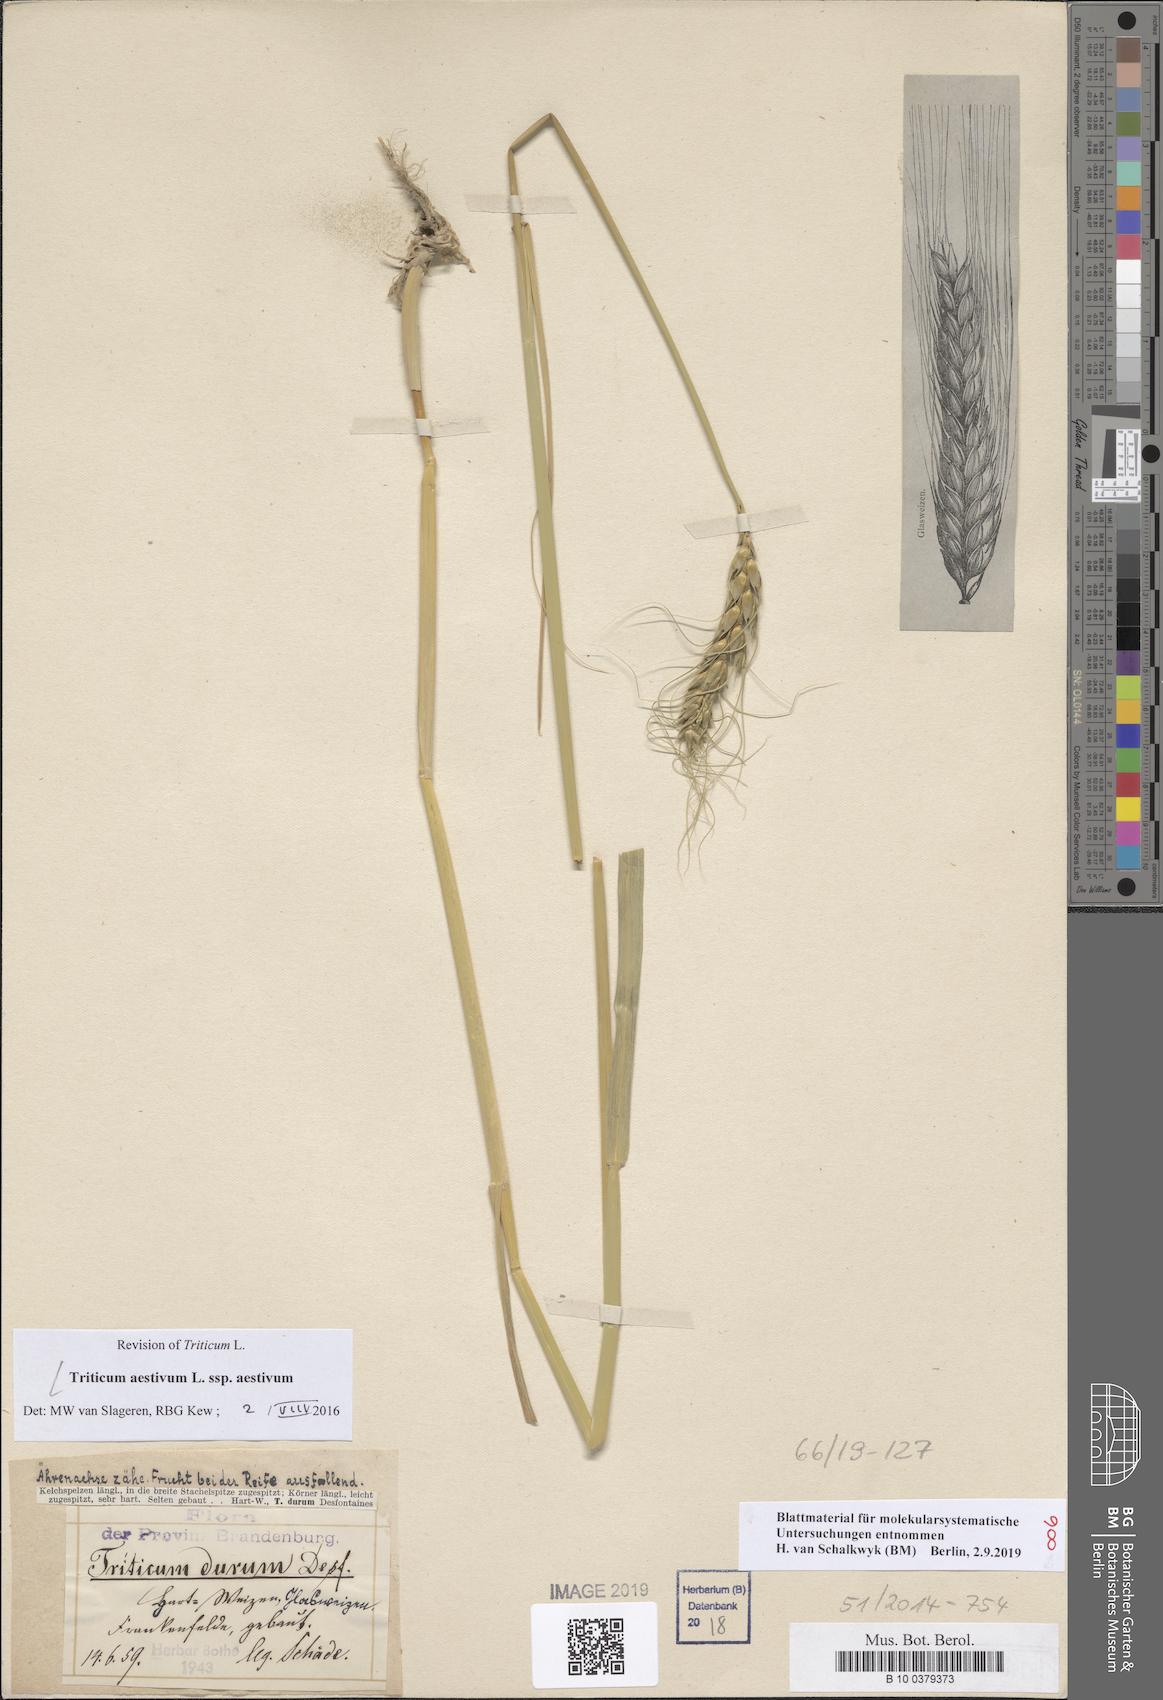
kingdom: Plantae
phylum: Tracheophyta
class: Liliopsida
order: Poales
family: Poaceae
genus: Triticum
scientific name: Triticum aestivum
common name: Common wheat
